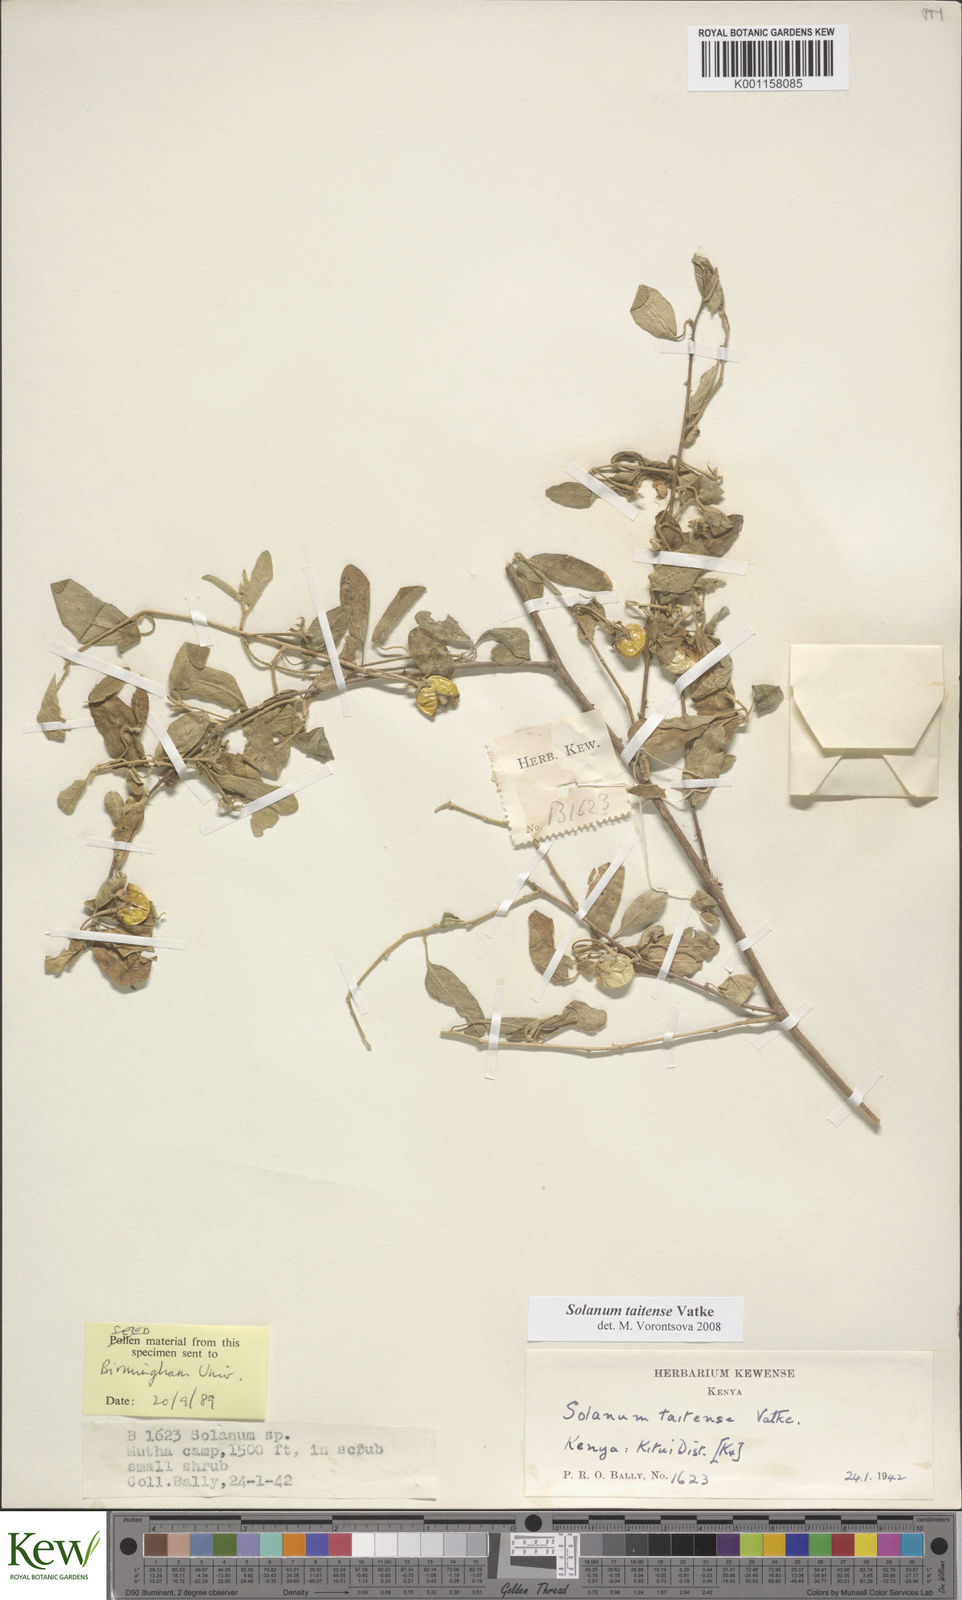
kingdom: Plantae
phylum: Tracheophyta
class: Magnoliopsida
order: Solanales
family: Solanaceae
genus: Solanum
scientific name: Solanum taitense
